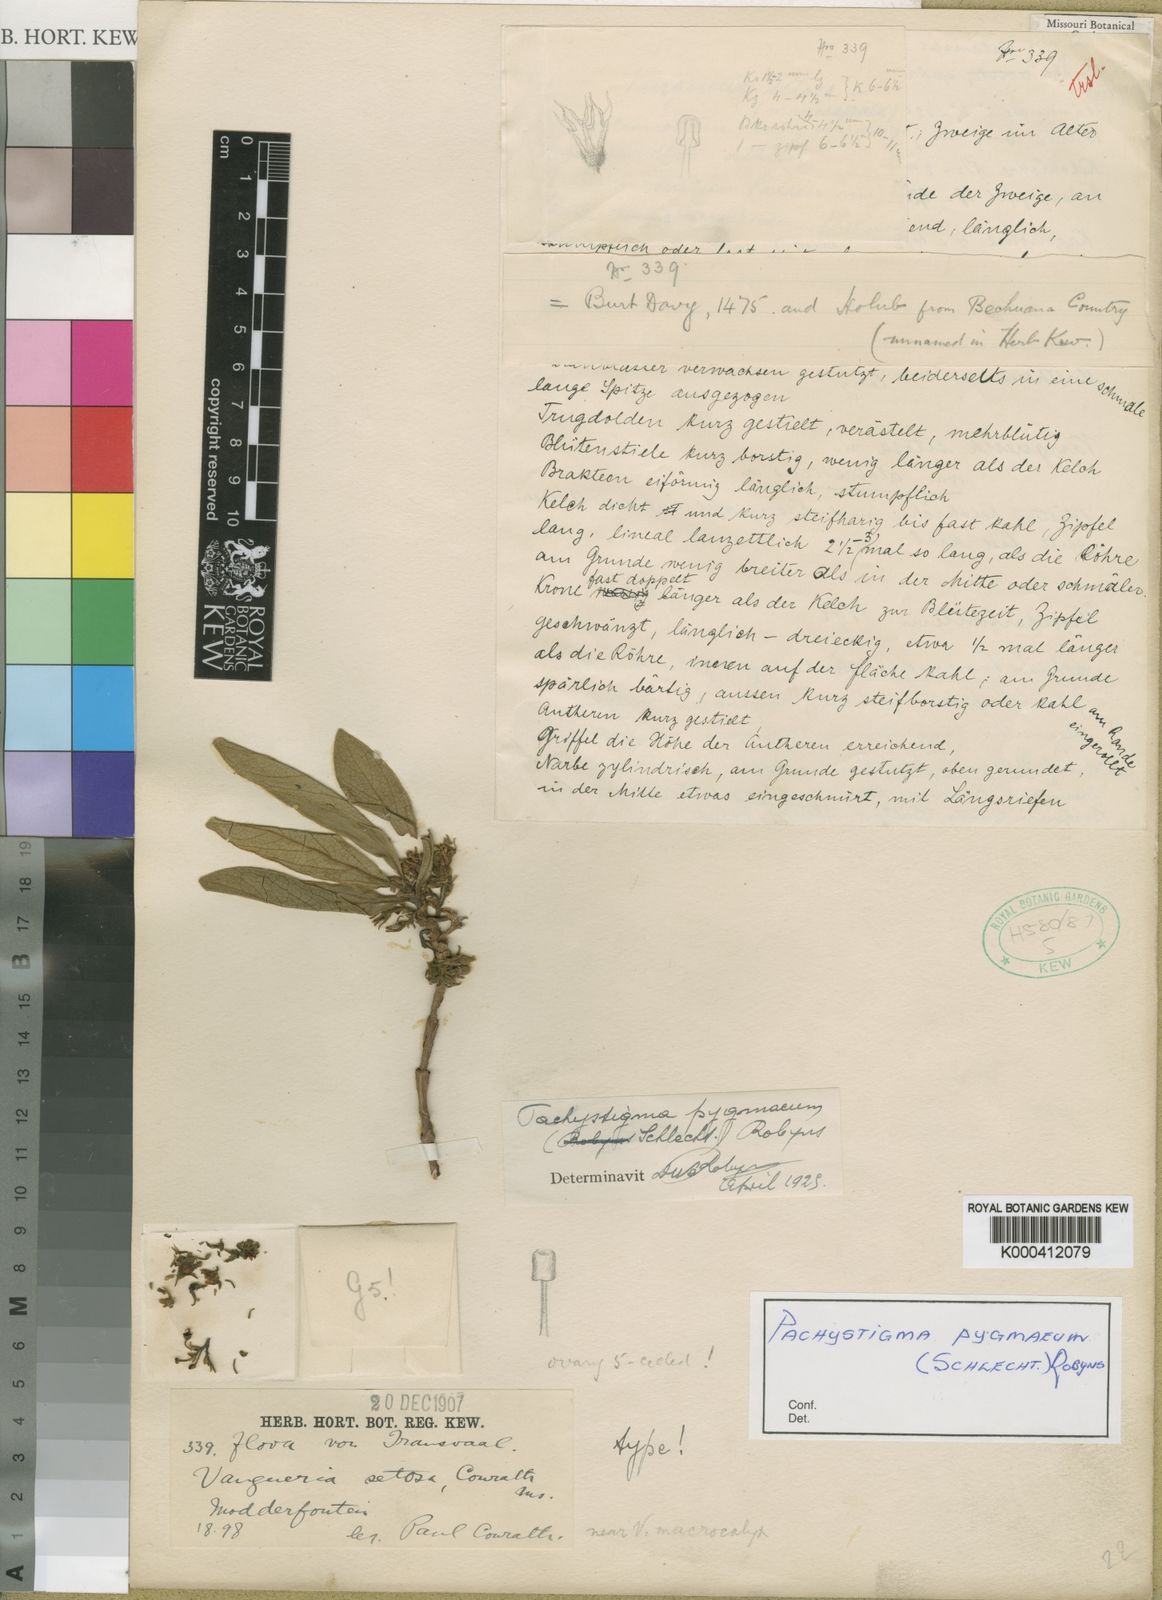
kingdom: Plantae
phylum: Tracheophyta
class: Magnoliopsida
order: Gentianales
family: Rubiaceae
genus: Vangueria
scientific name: Vangueria pygmaea
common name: Hairy gousiektebossie
